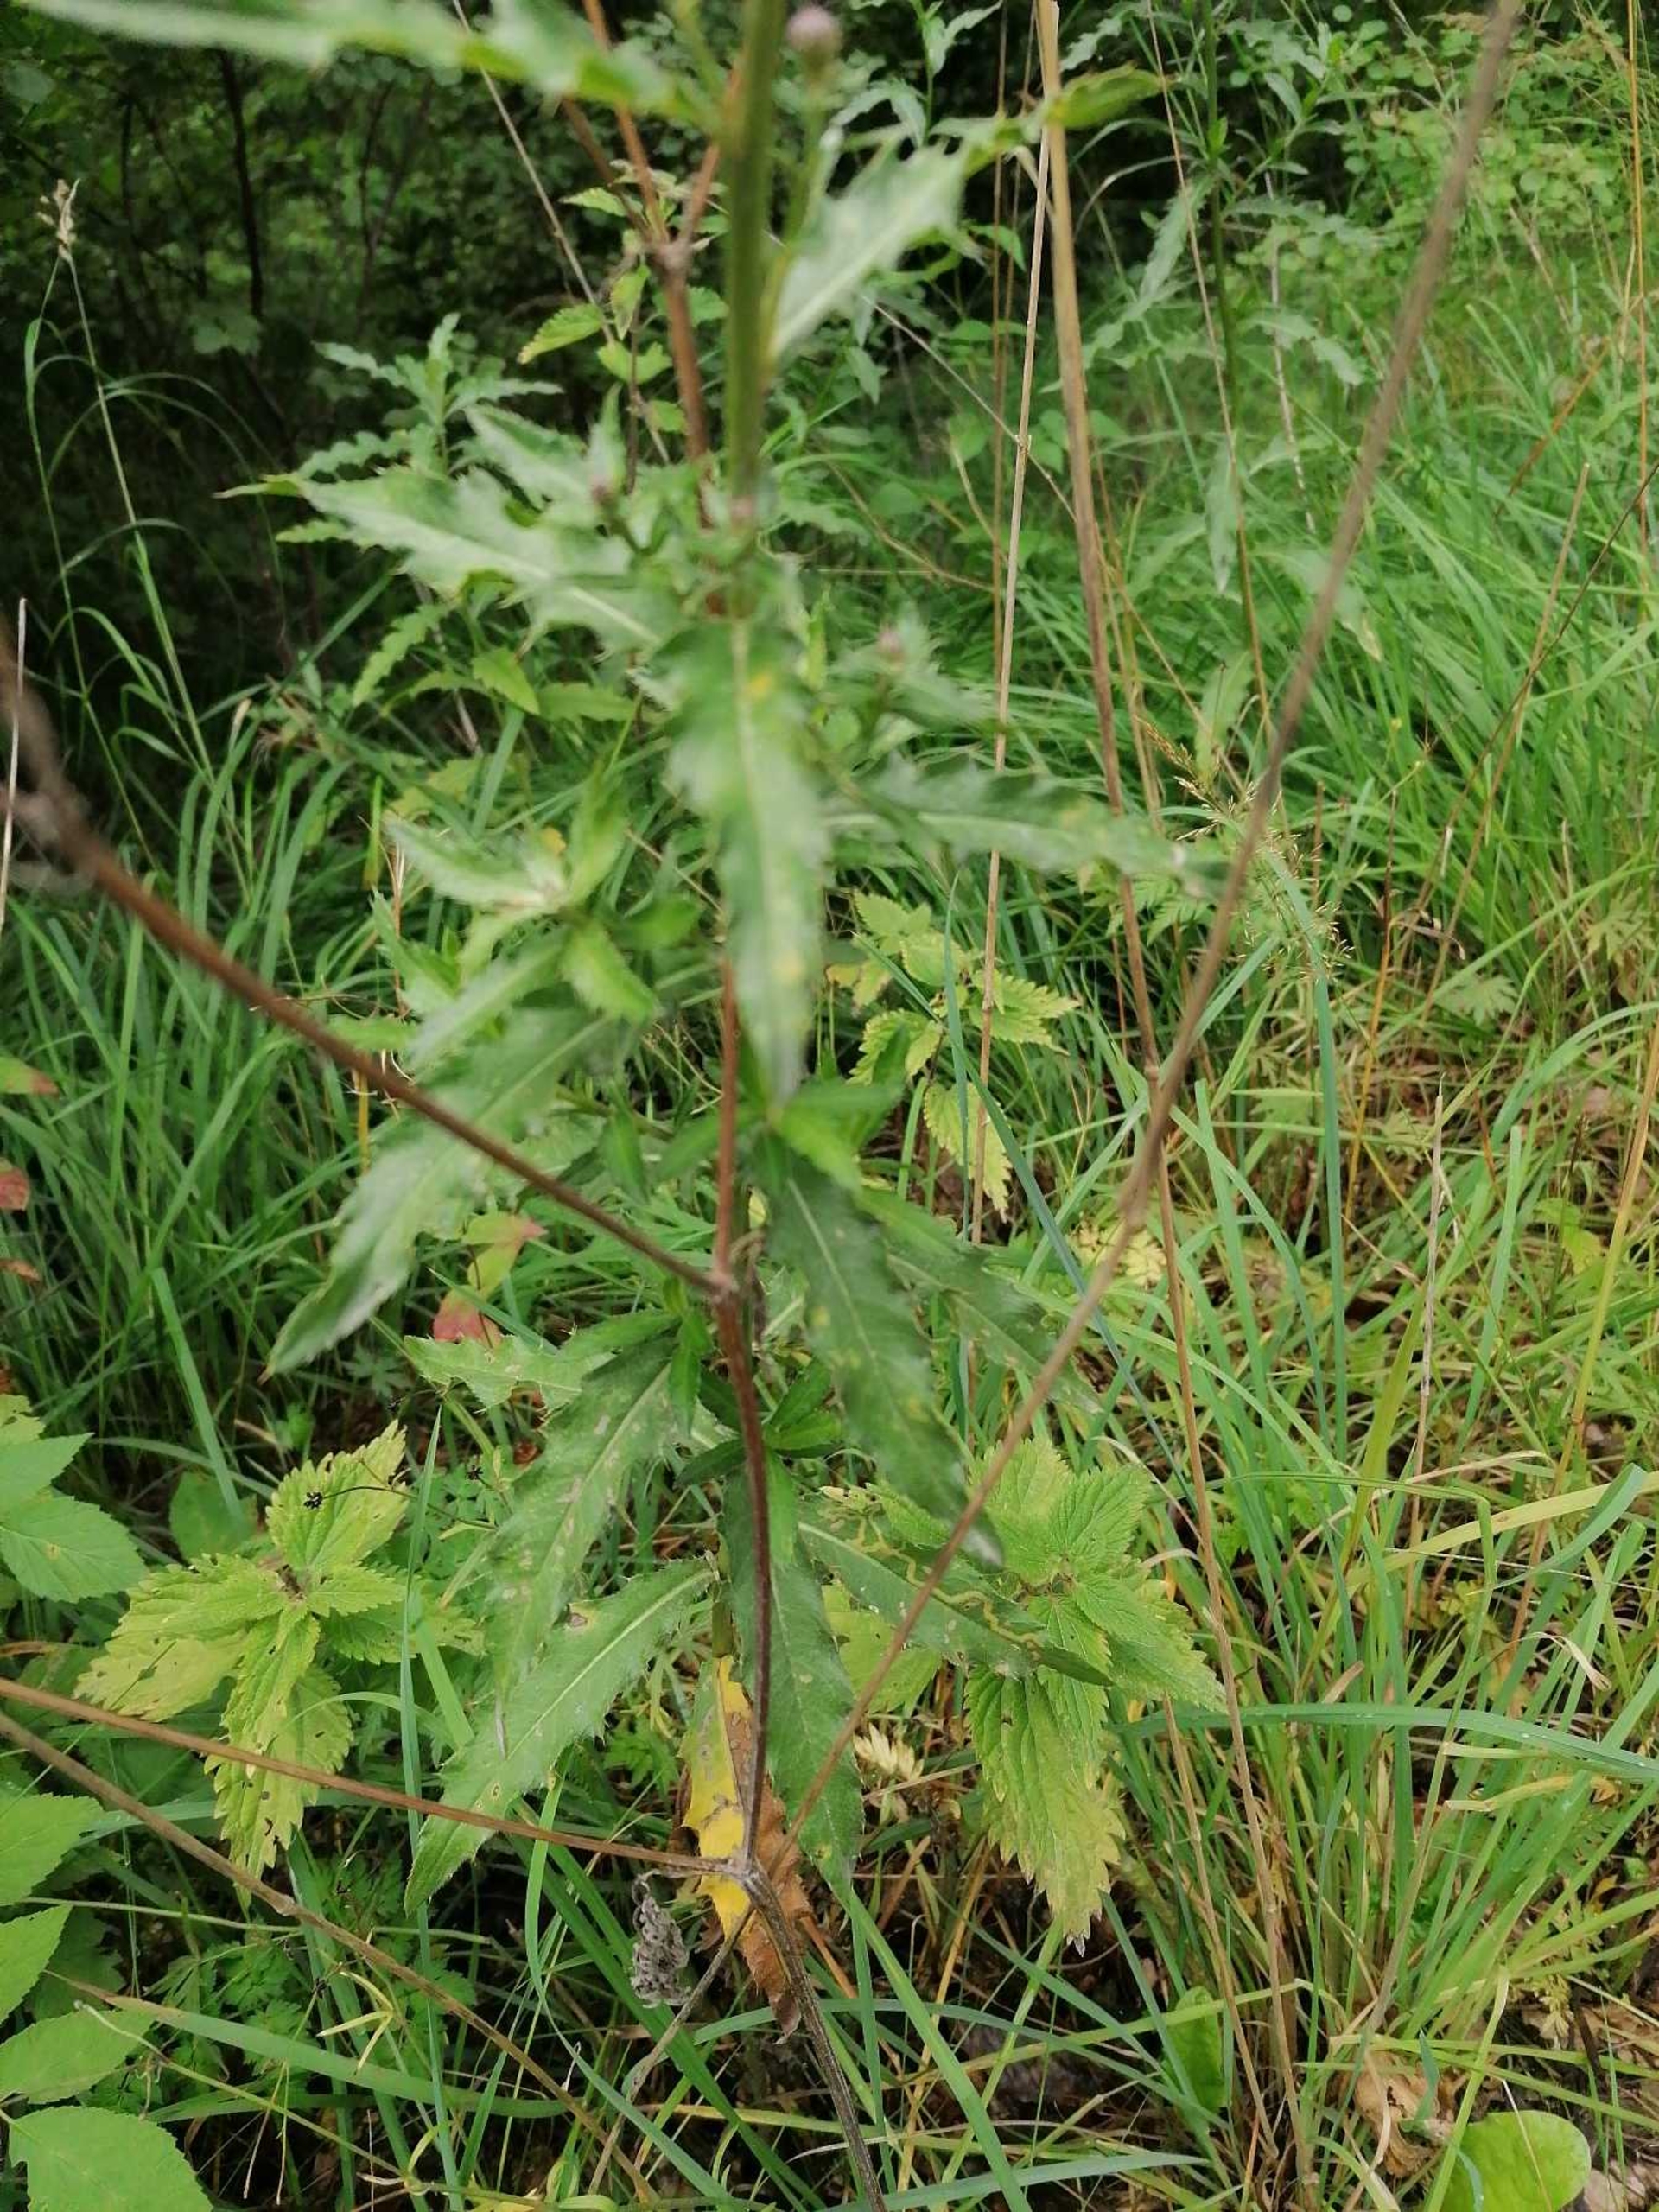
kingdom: Plantae
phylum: Tracheophyta
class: Magnoliopsida
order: Asterales
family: Asteraceae
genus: Cirsium
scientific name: Cirsium arvense
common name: Ager-tidsel
